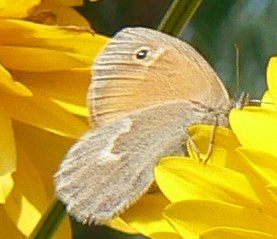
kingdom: Animalia
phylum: Arthropoda
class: Insecta
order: Lepidoptera
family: Nymphalidae
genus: Coenonympha
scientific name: Coenonympha tullia
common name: Large Heath
